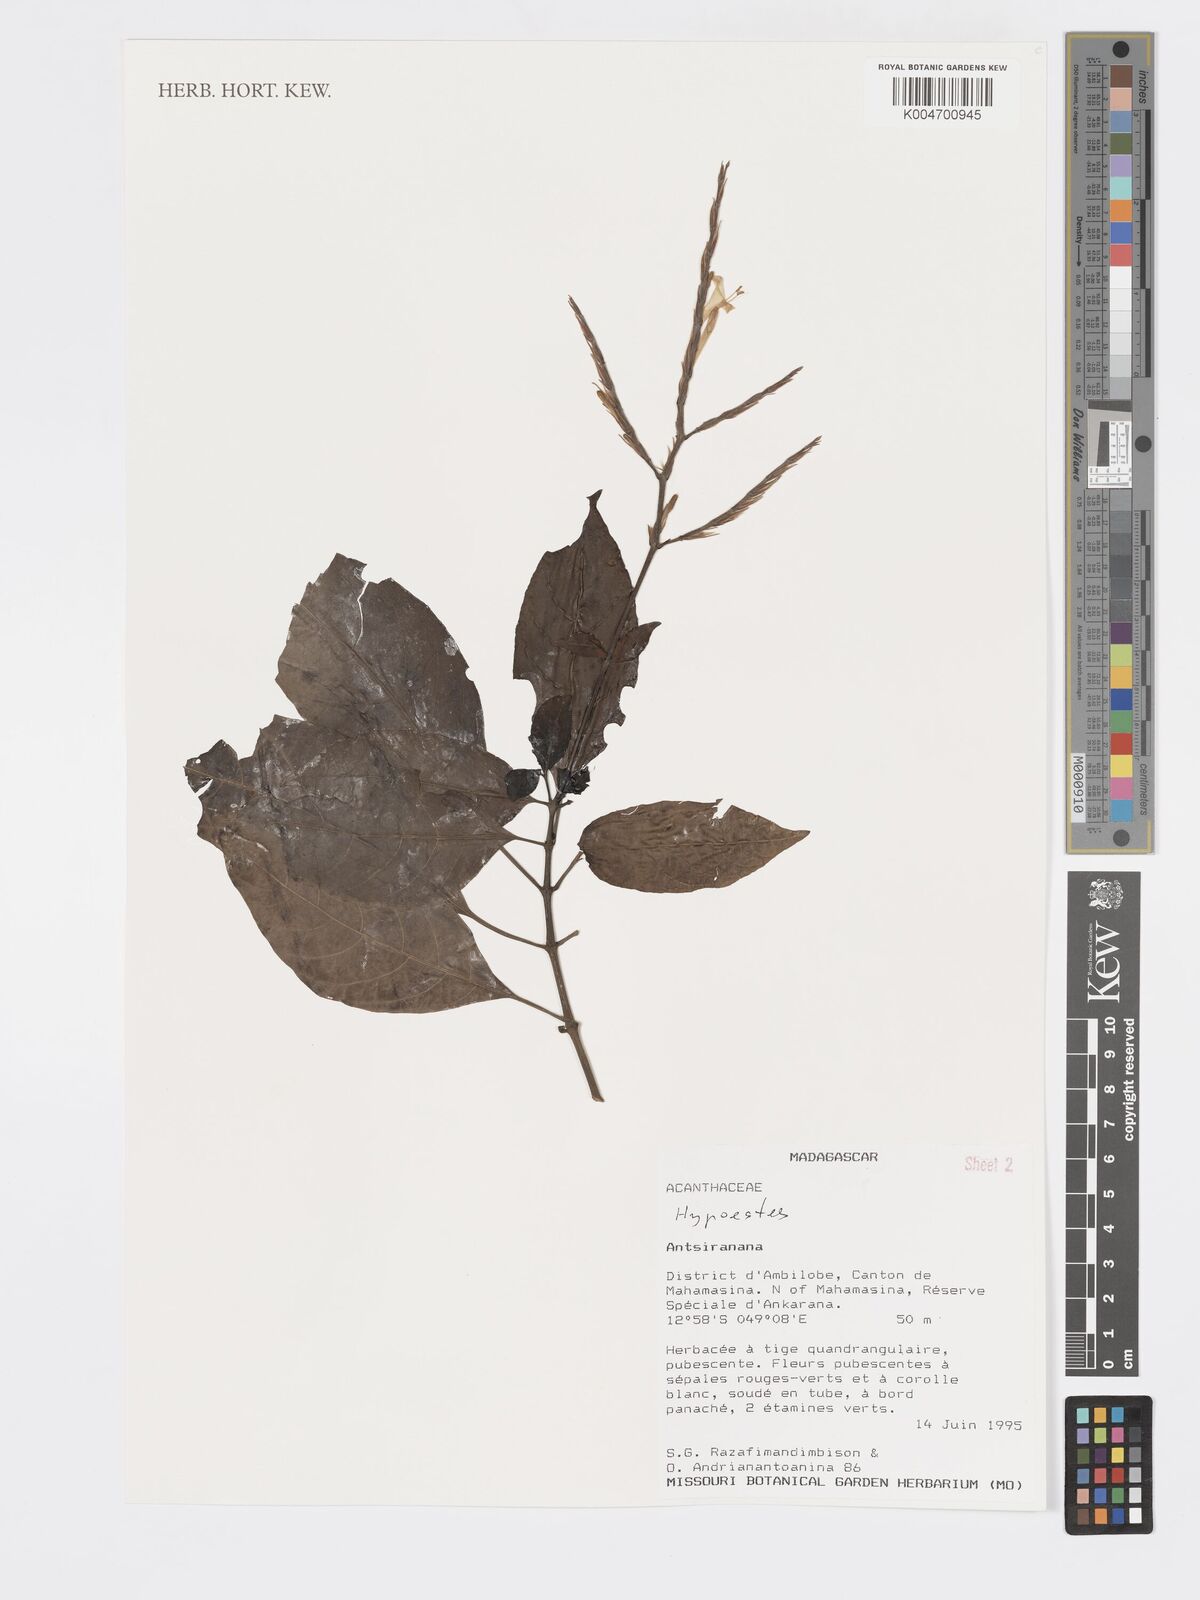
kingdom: Plantae
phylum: Tracheophyta
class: Magnoliopsida
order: Lamiales
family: Acanthaceae
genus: Hypoestes
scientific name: Hypoestes
